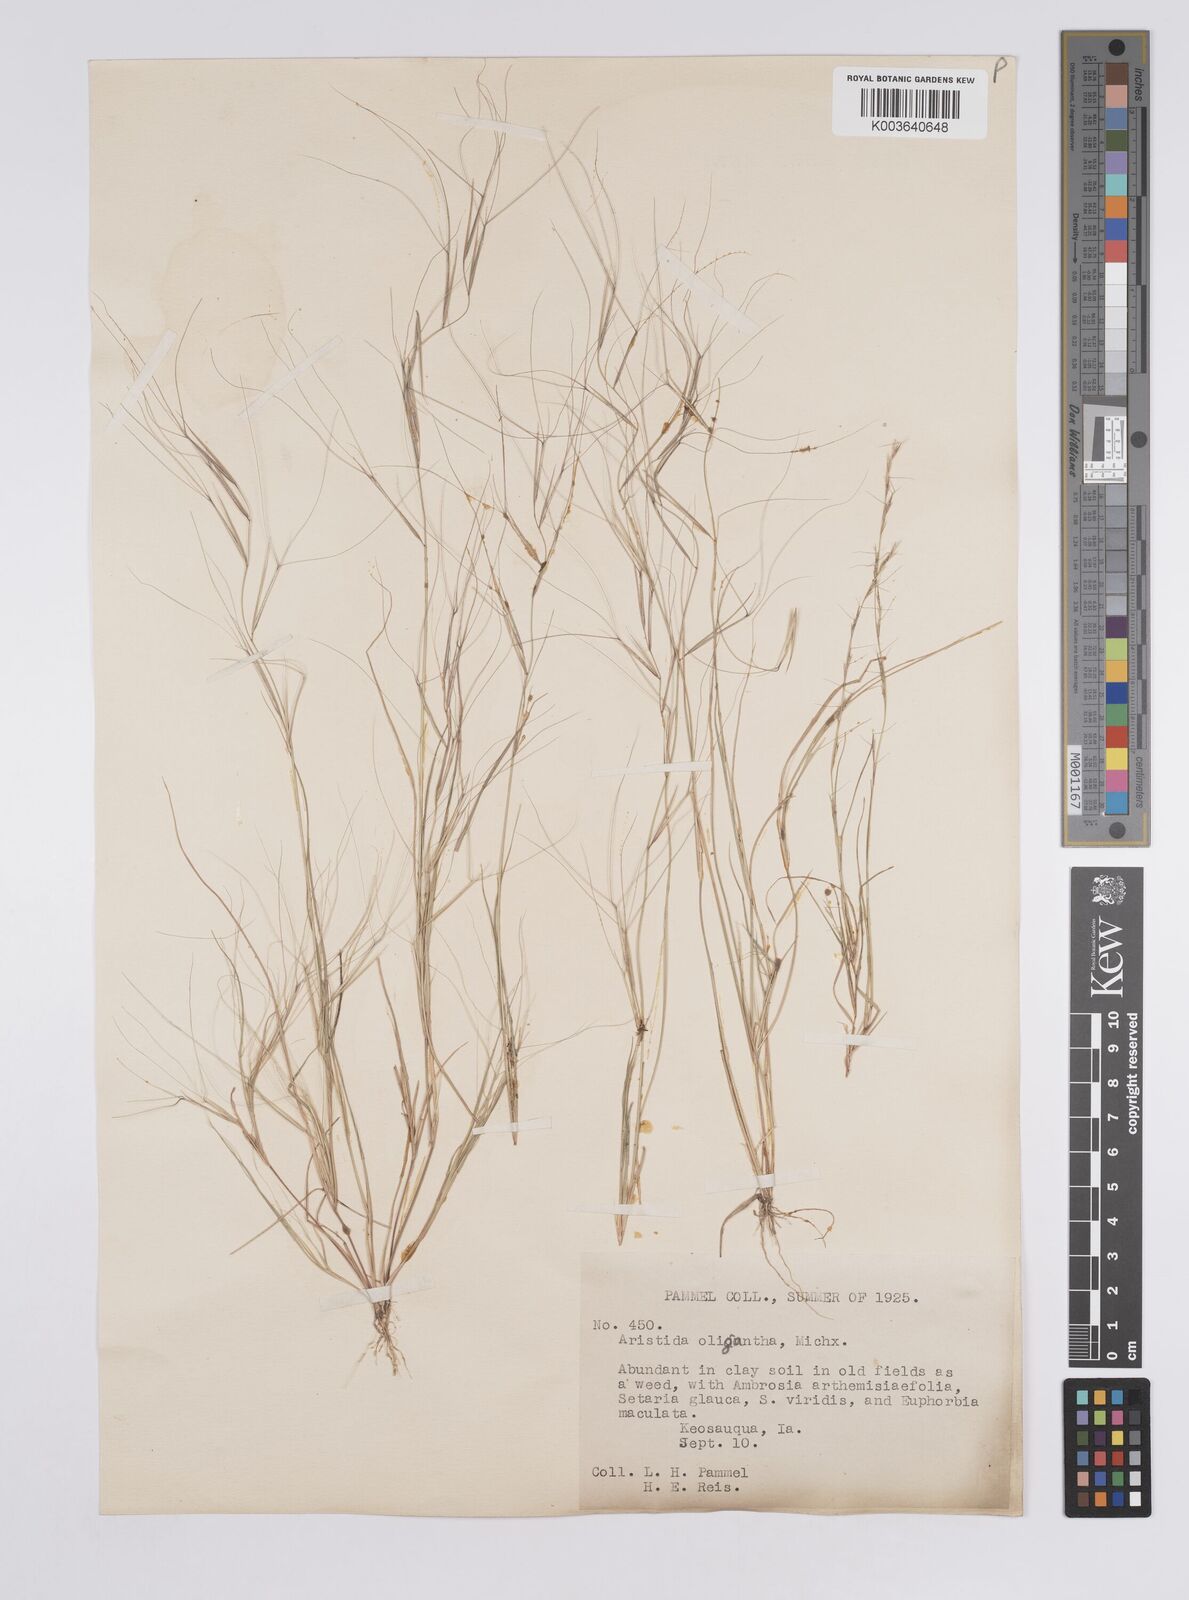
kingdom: Plantae
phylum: Tracheophyta
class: Liliopsida
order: Poales
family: Poaceae
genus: Aristida
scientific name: Aristida oligantha
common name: Few-flowered aristida
